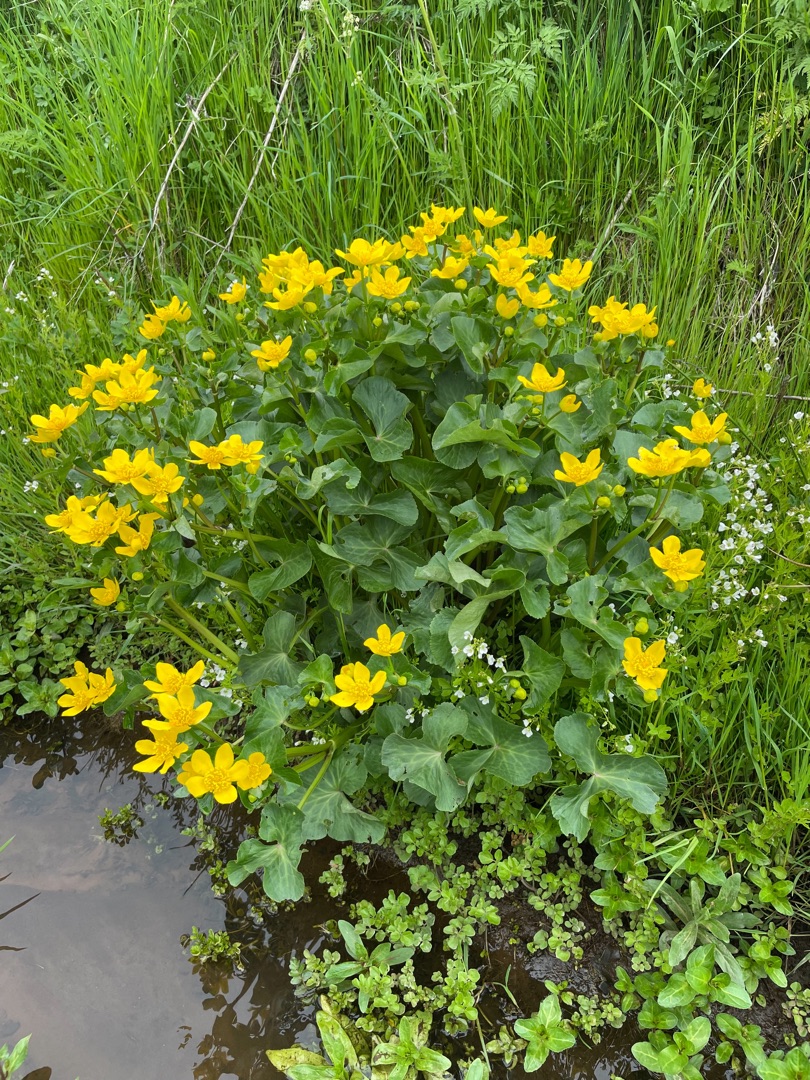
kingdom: Plantae
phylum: Tracheophyta
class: Magnoliopsida
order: Ranunculales
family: Ranunculaceae
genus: Caltha
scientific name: Caltha palustris
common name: Eng-kabbeleje
